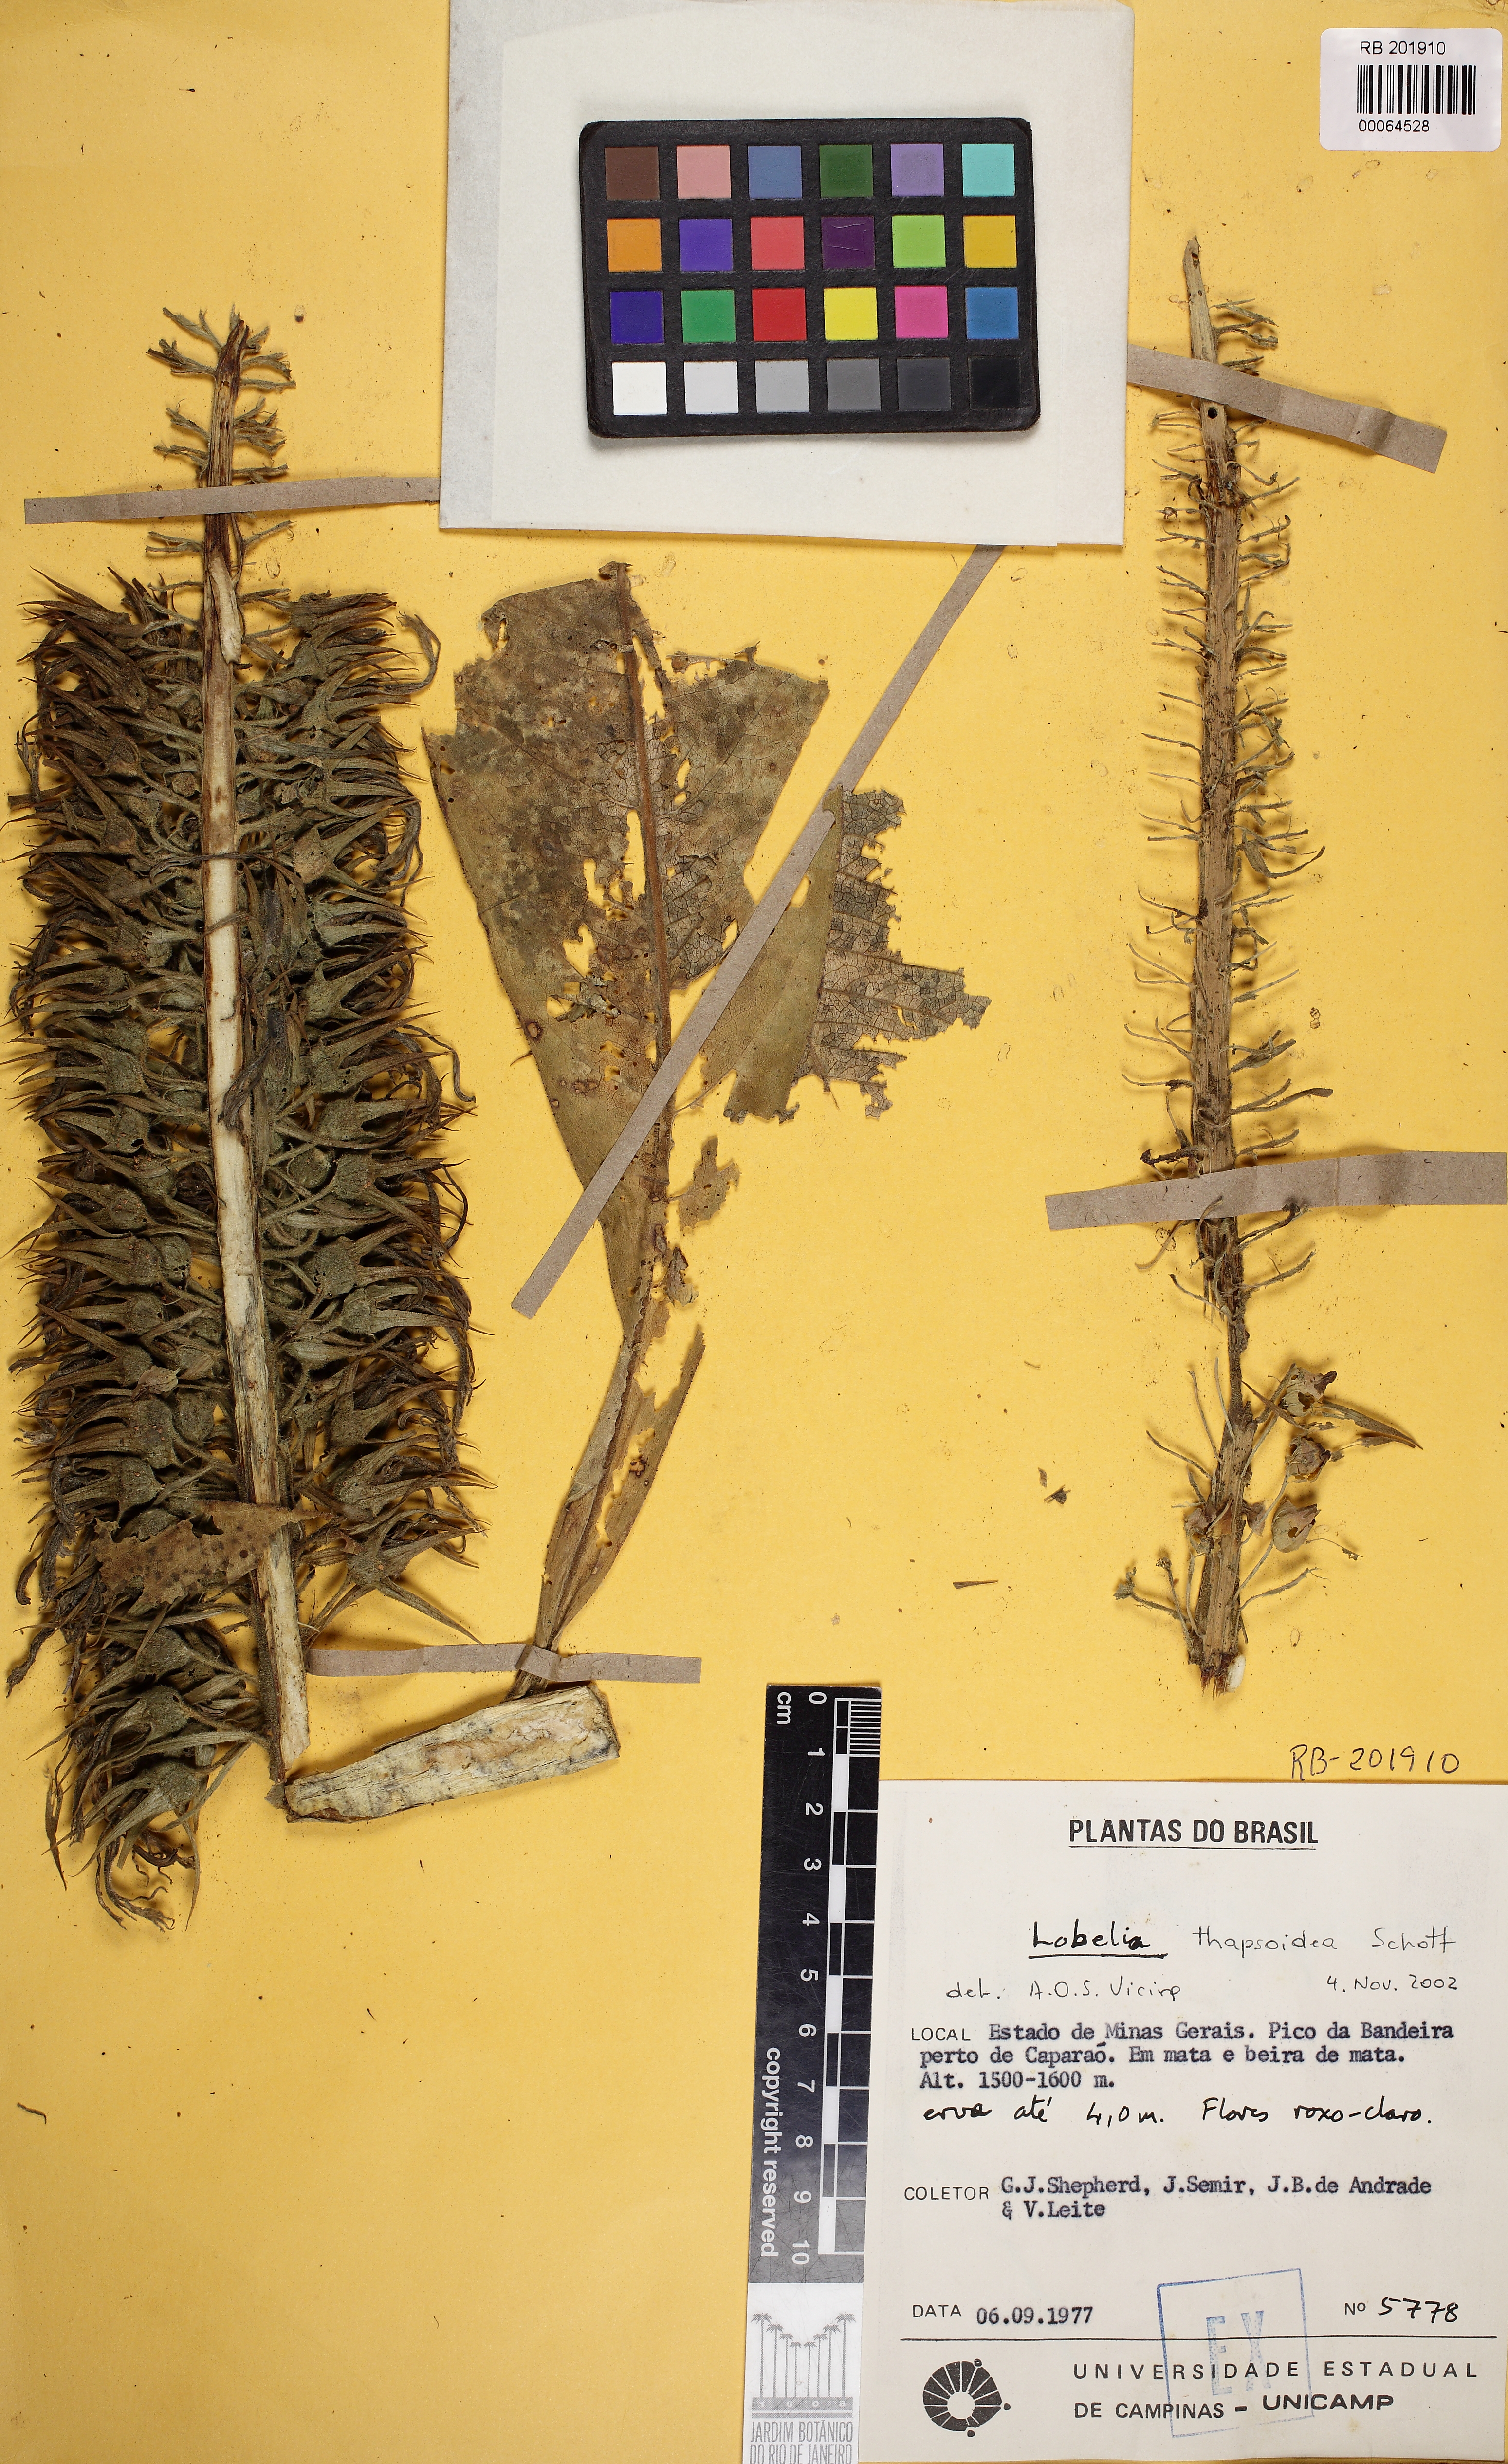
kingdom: Plantae
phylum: Tracheophyta
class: Magnoliopsida
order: Asterales
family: Campanulaceae
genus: Lobelia
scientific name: Lobelia thapsoidea
